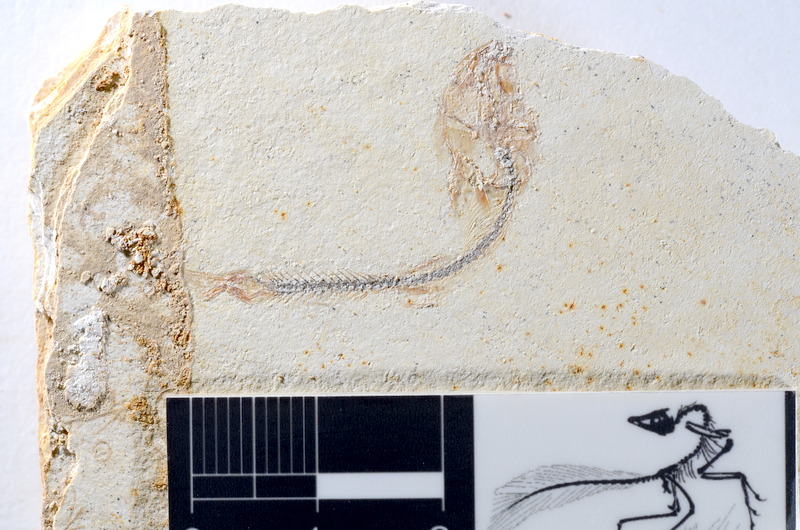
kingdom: Animalia
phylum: Chordata
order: Salmoniformes
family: Orthogonikleithridae
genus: Orthogonikleithrus
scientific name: Orthogonikleithrus hoelli
